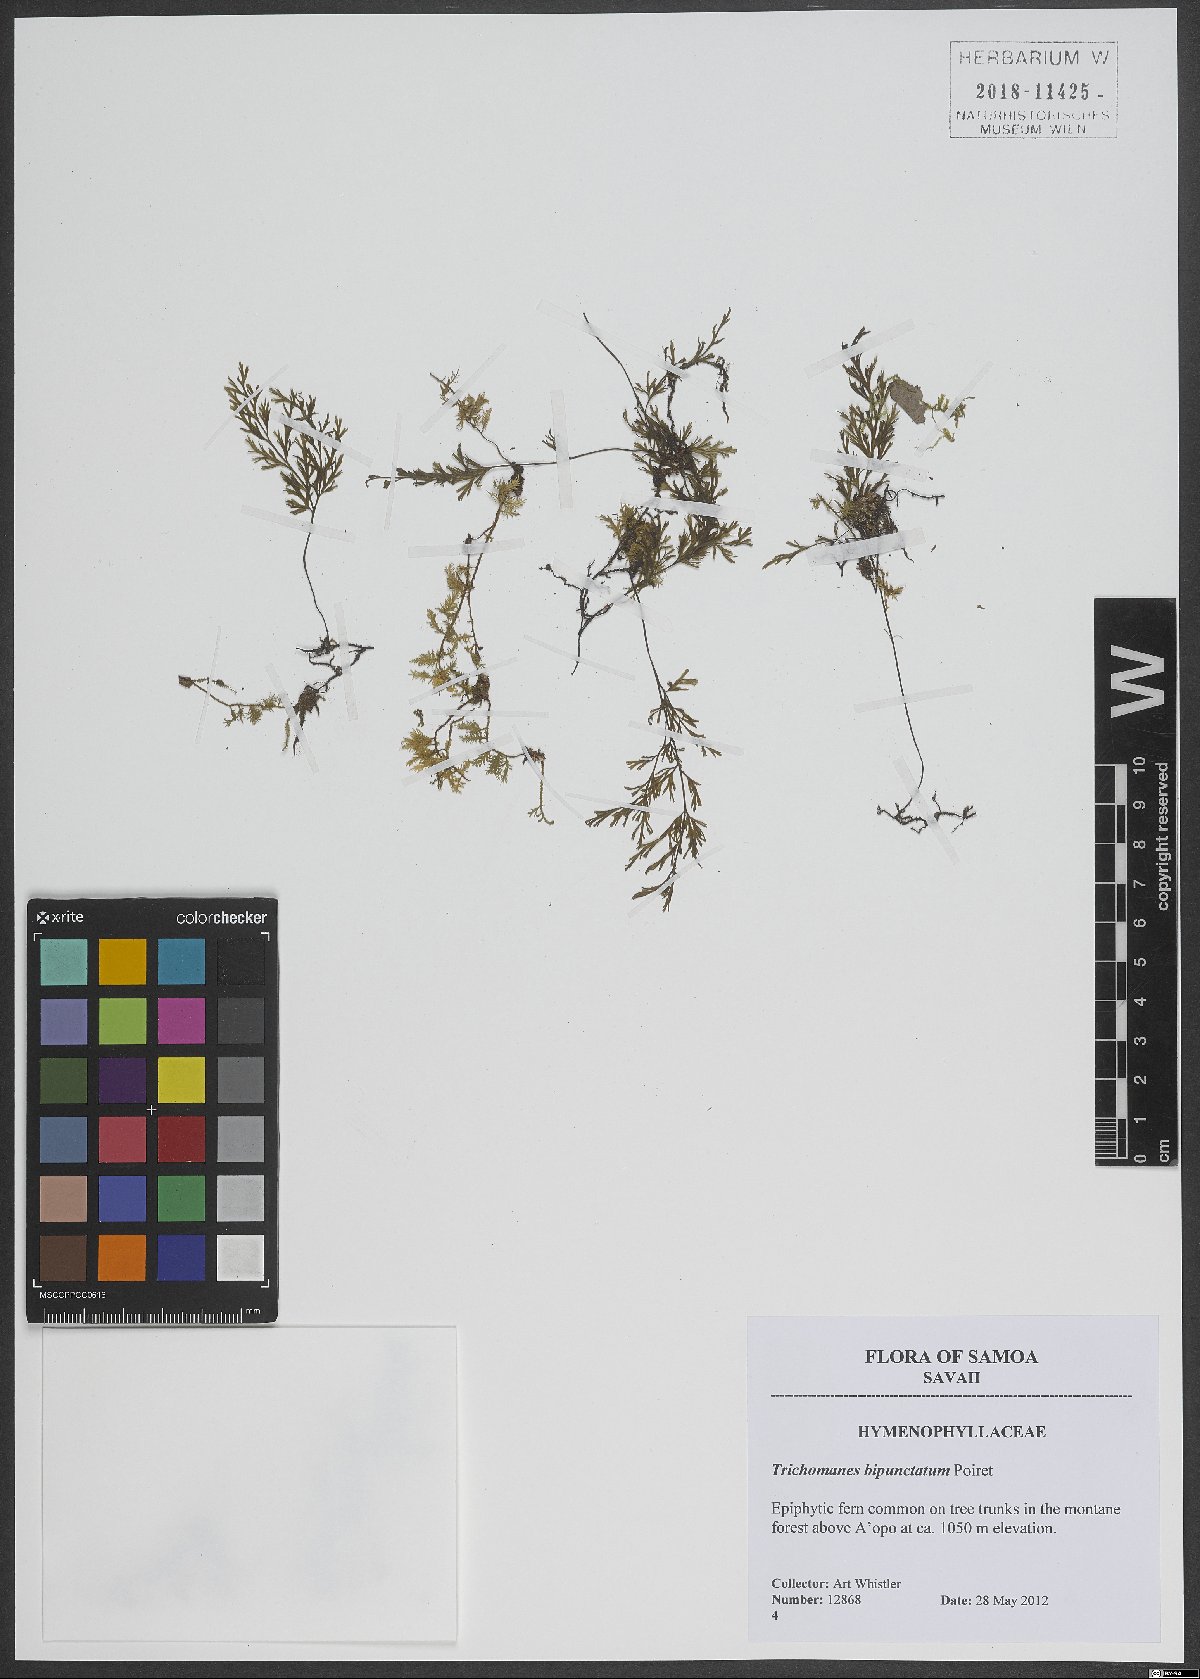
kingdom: Plantae
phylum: Tracheophyta
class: Polypodiopsida
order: Hymenophyllales
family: Hymenophyllaceae
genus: Crepidomanes
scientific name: Crepidomanes bipunctatum
